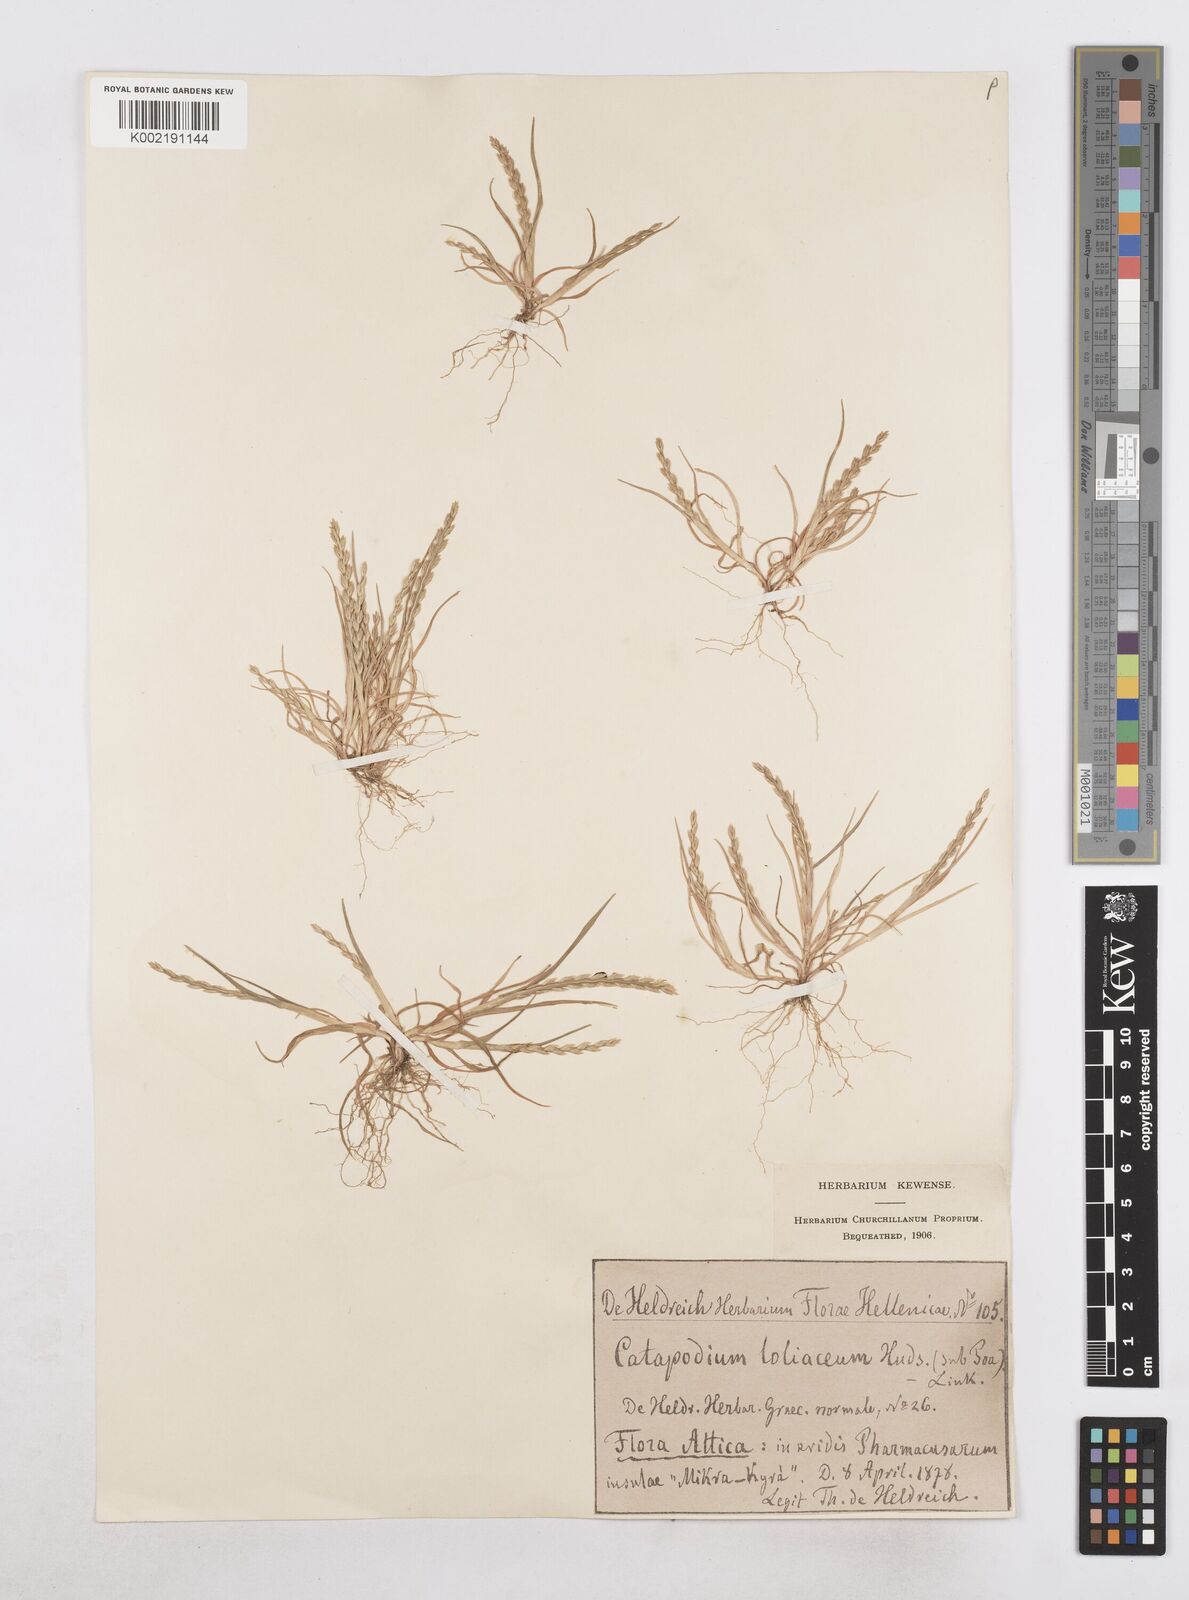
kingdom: Plantae
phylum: Tracheophyta
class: Liliopsida
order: Poales
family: Poaceae
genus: Catapodium
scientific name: Catapodium marinum
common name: Sea fern-grass
